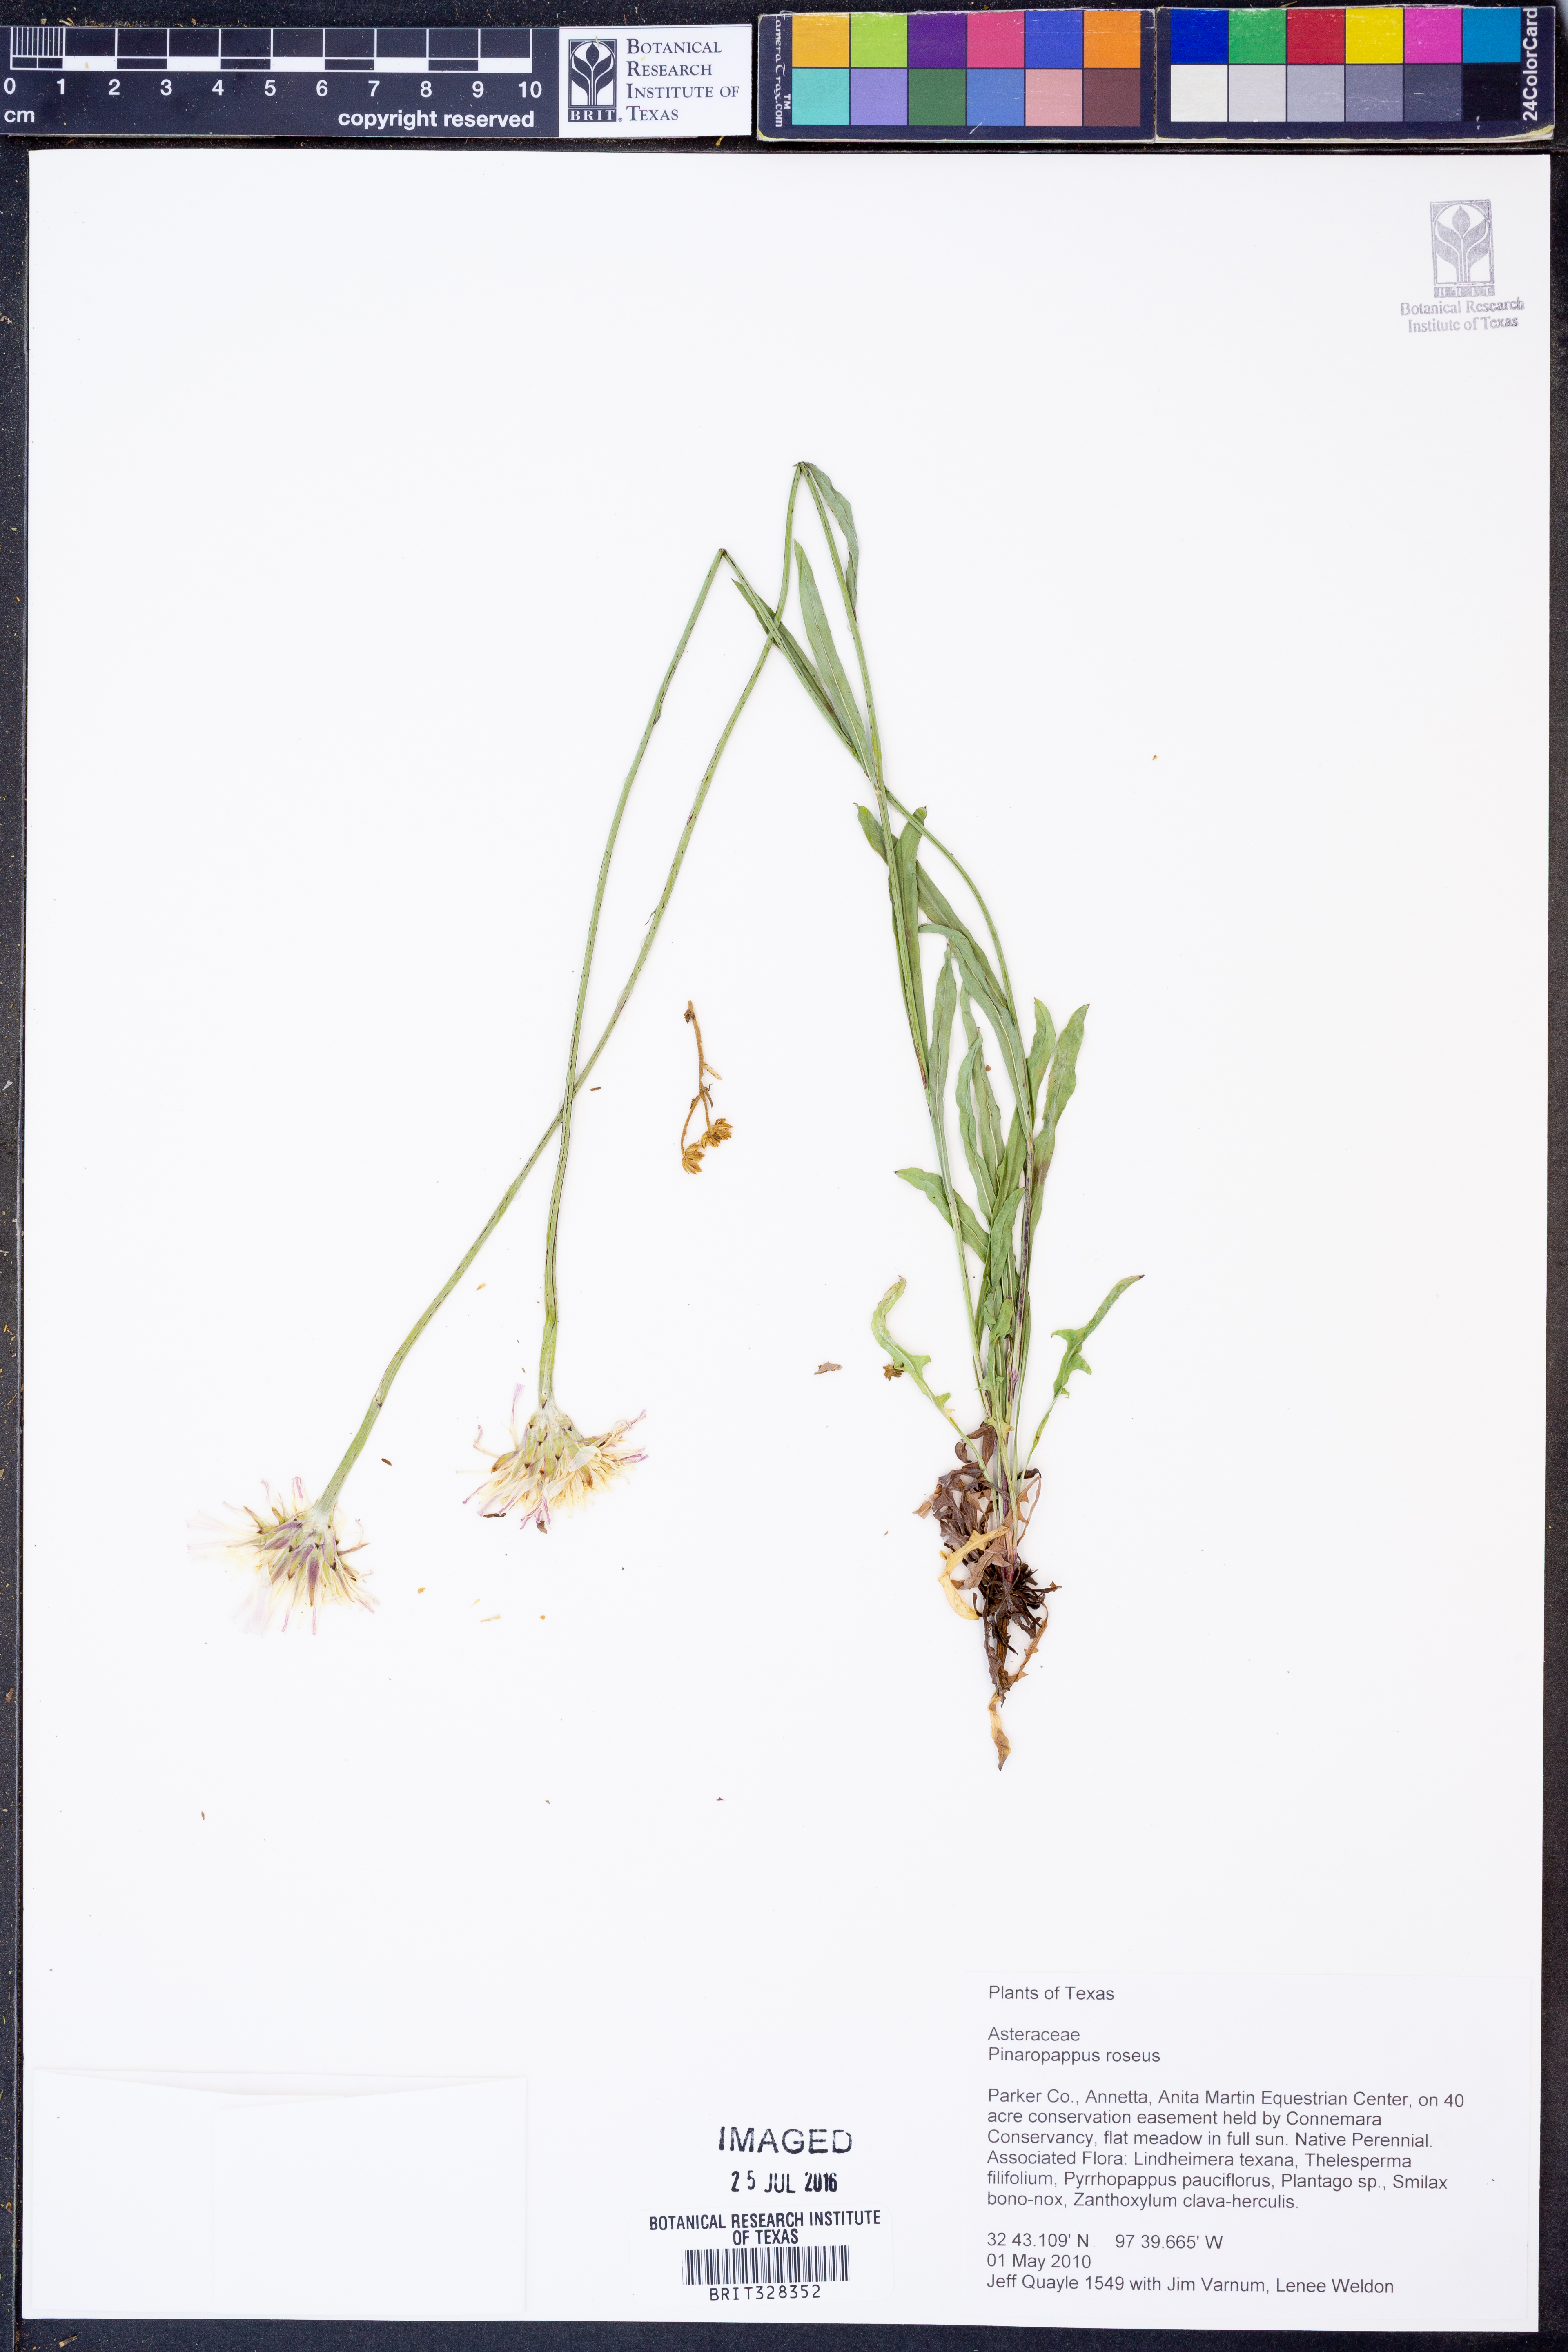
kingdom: Plantae
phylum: Tracheophyta
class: Magnoliopsida
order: Asterales
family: Asteraceae
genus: Pinaropappus
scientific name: Pinaropappus roseus
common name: Rock-lettuce
